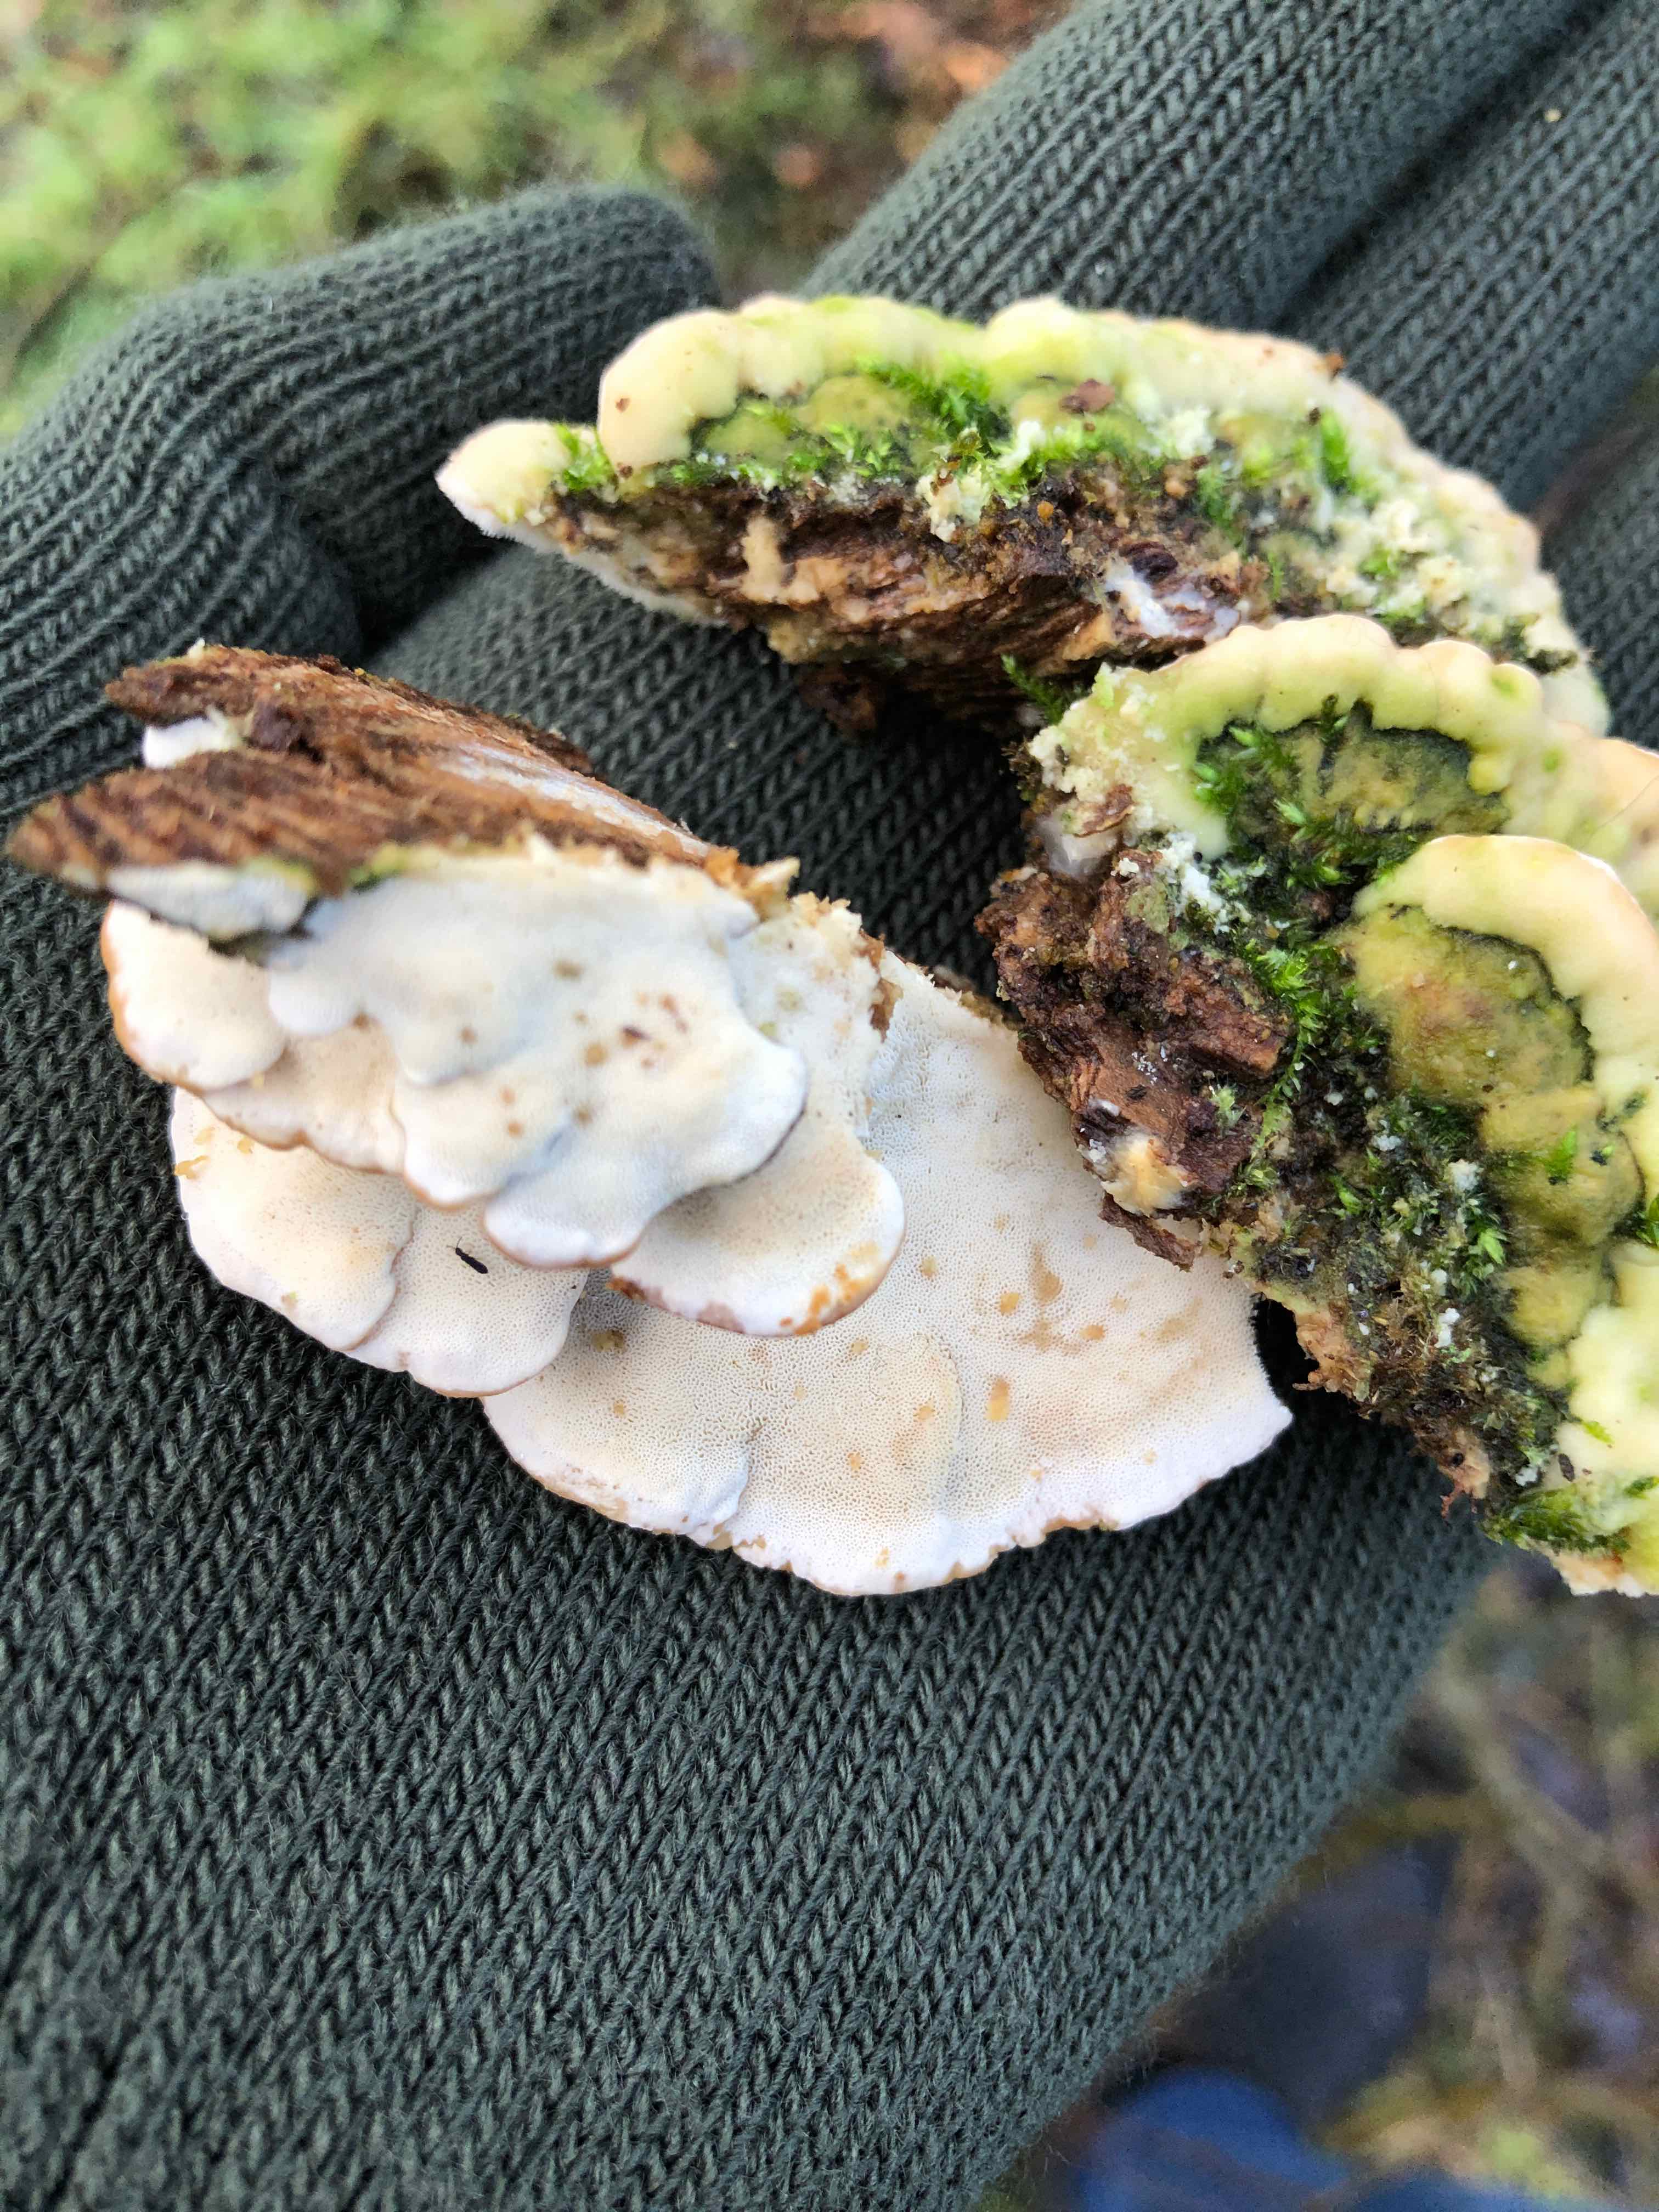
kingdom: Fungi
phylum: Basidiomycota
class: Agaricomycetes
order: Hymenochaetales
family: Oxyporaceae
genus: Oxyporus
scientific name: Oxyporus populinus
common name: sammenvokset trylleporesvamp
